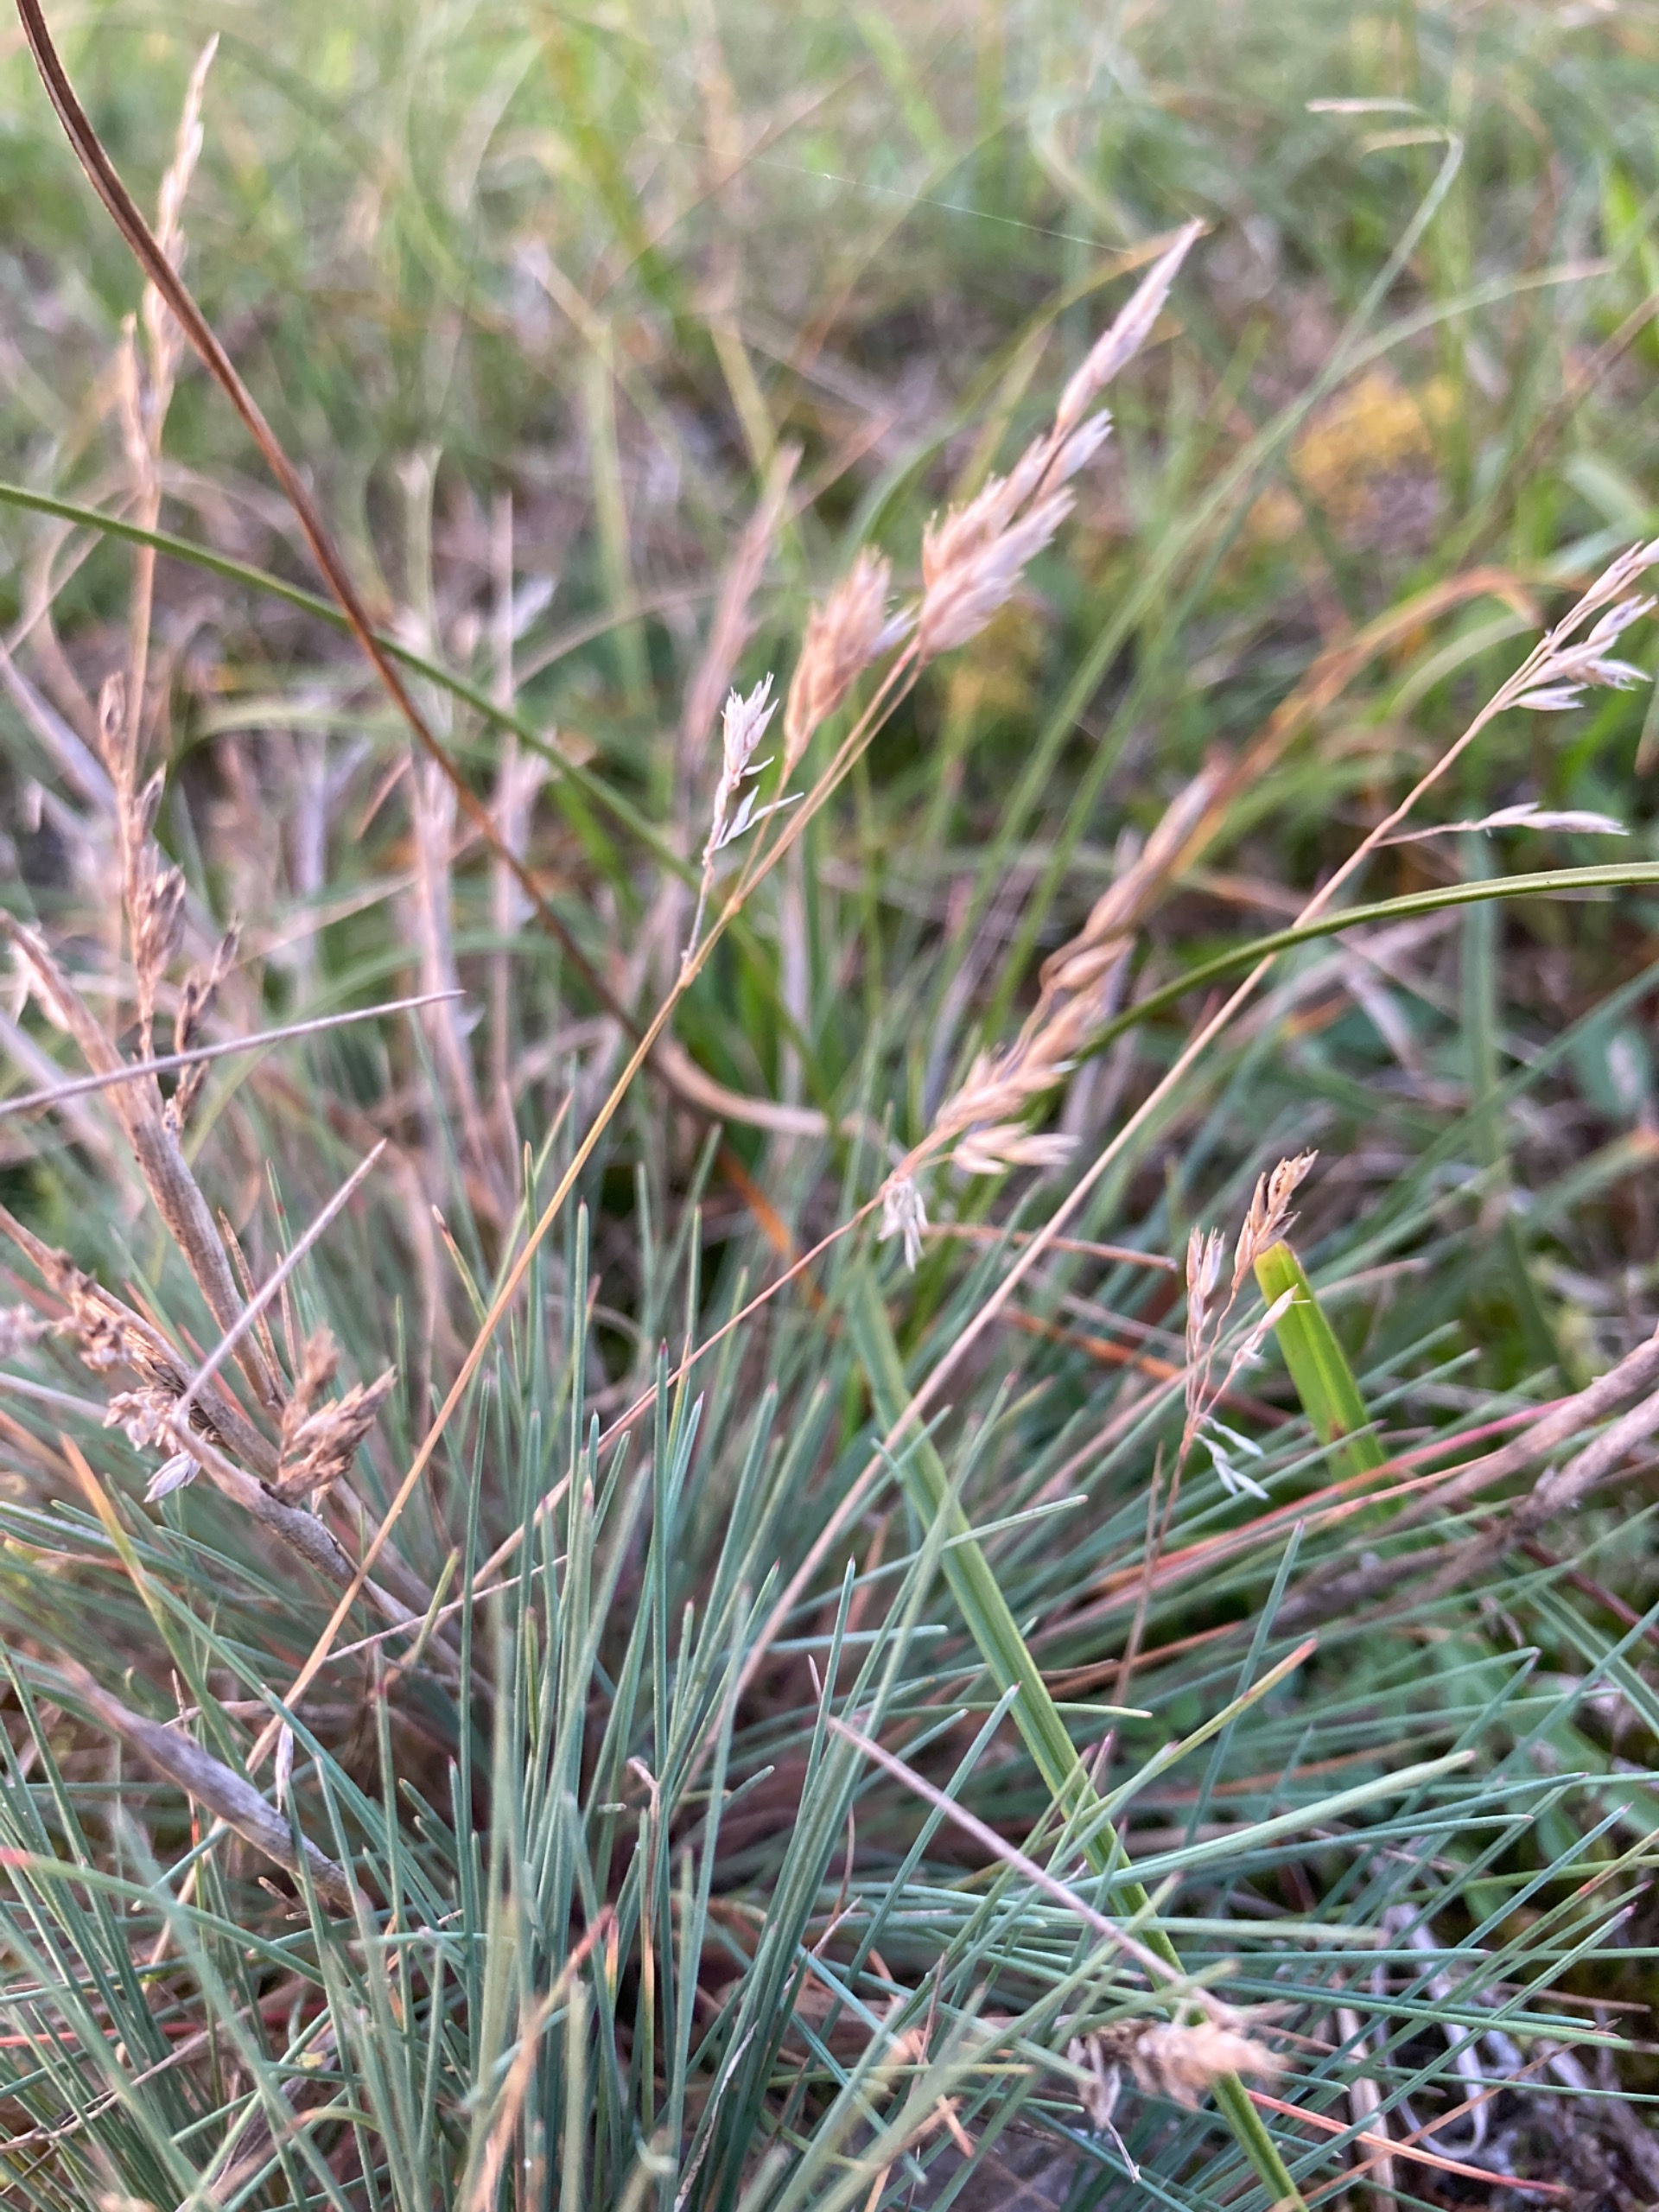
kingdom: Plantae
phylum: Tracheophyta
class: Liliopsida
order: Poales
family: Poaceae
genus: Corynephorus
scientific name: Corynephorus canescens
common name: Sandskæg
